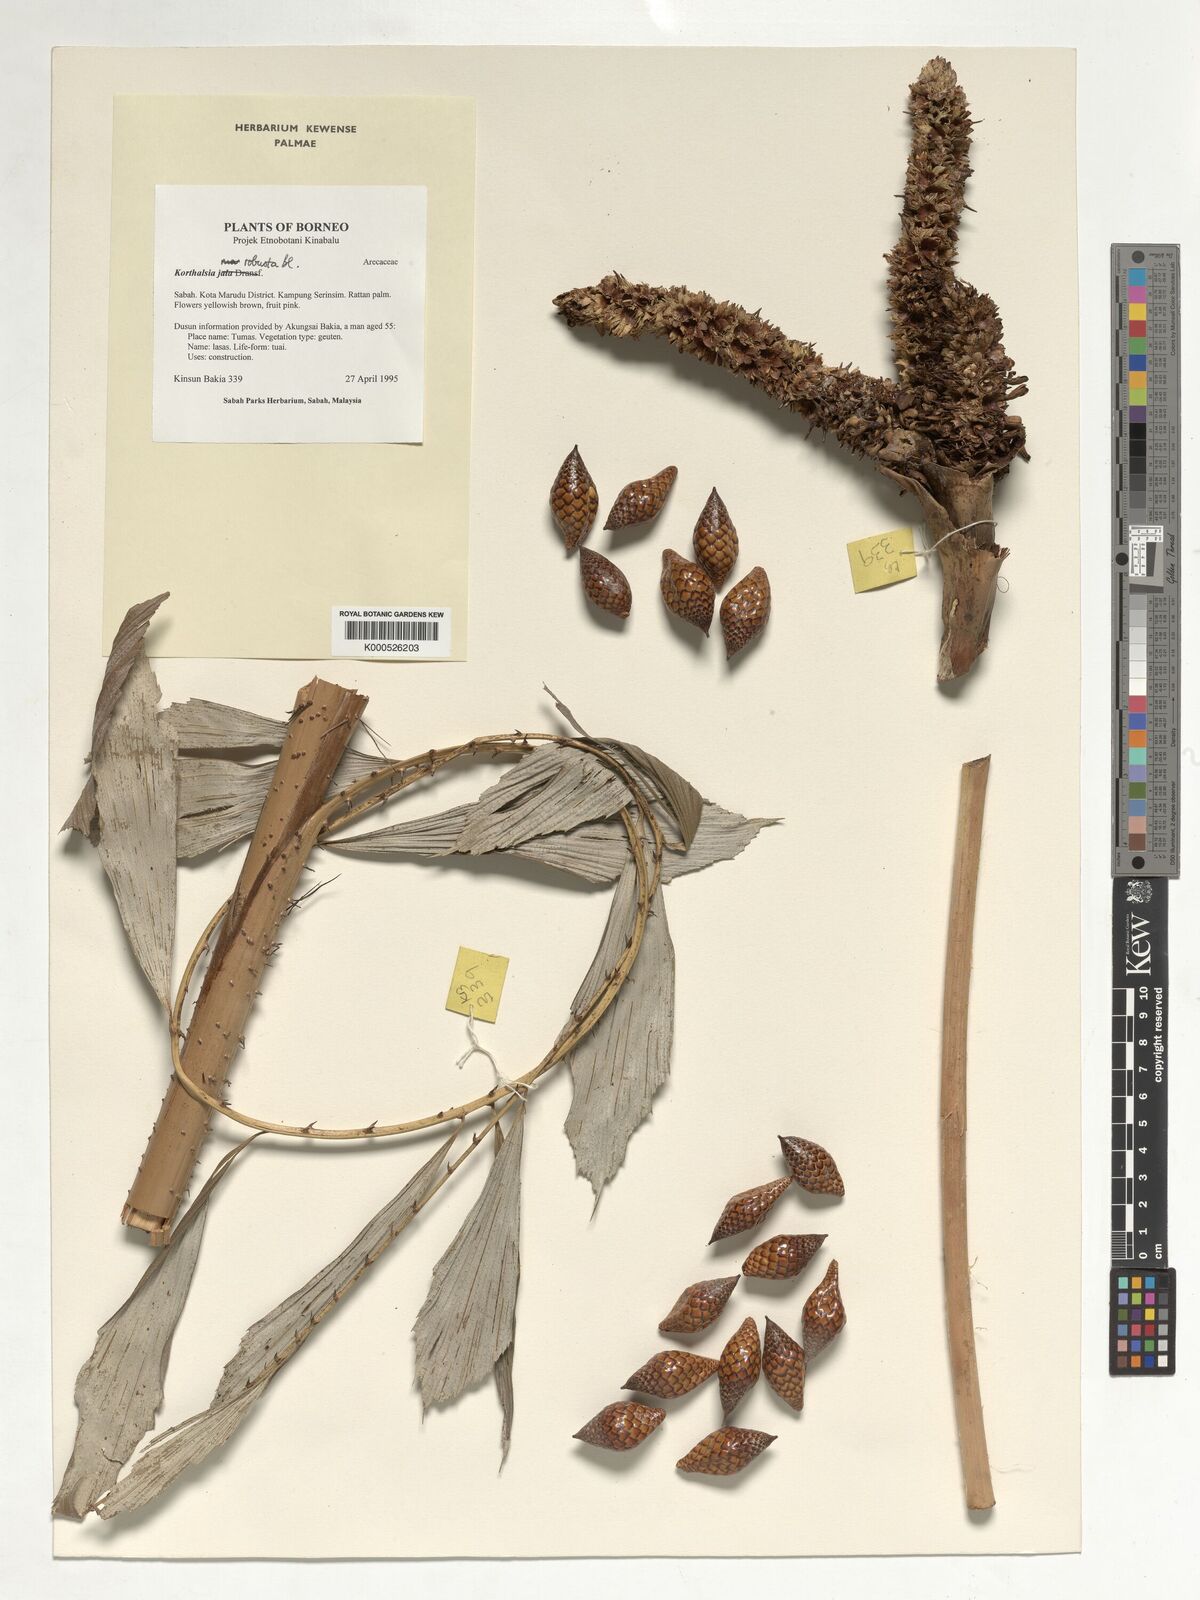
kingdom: Plantae
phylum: Tracheophyta
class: Liliopsida
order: Arecales
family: Arecaceae
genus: Korthalsia
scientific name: Korthalsia robusta
